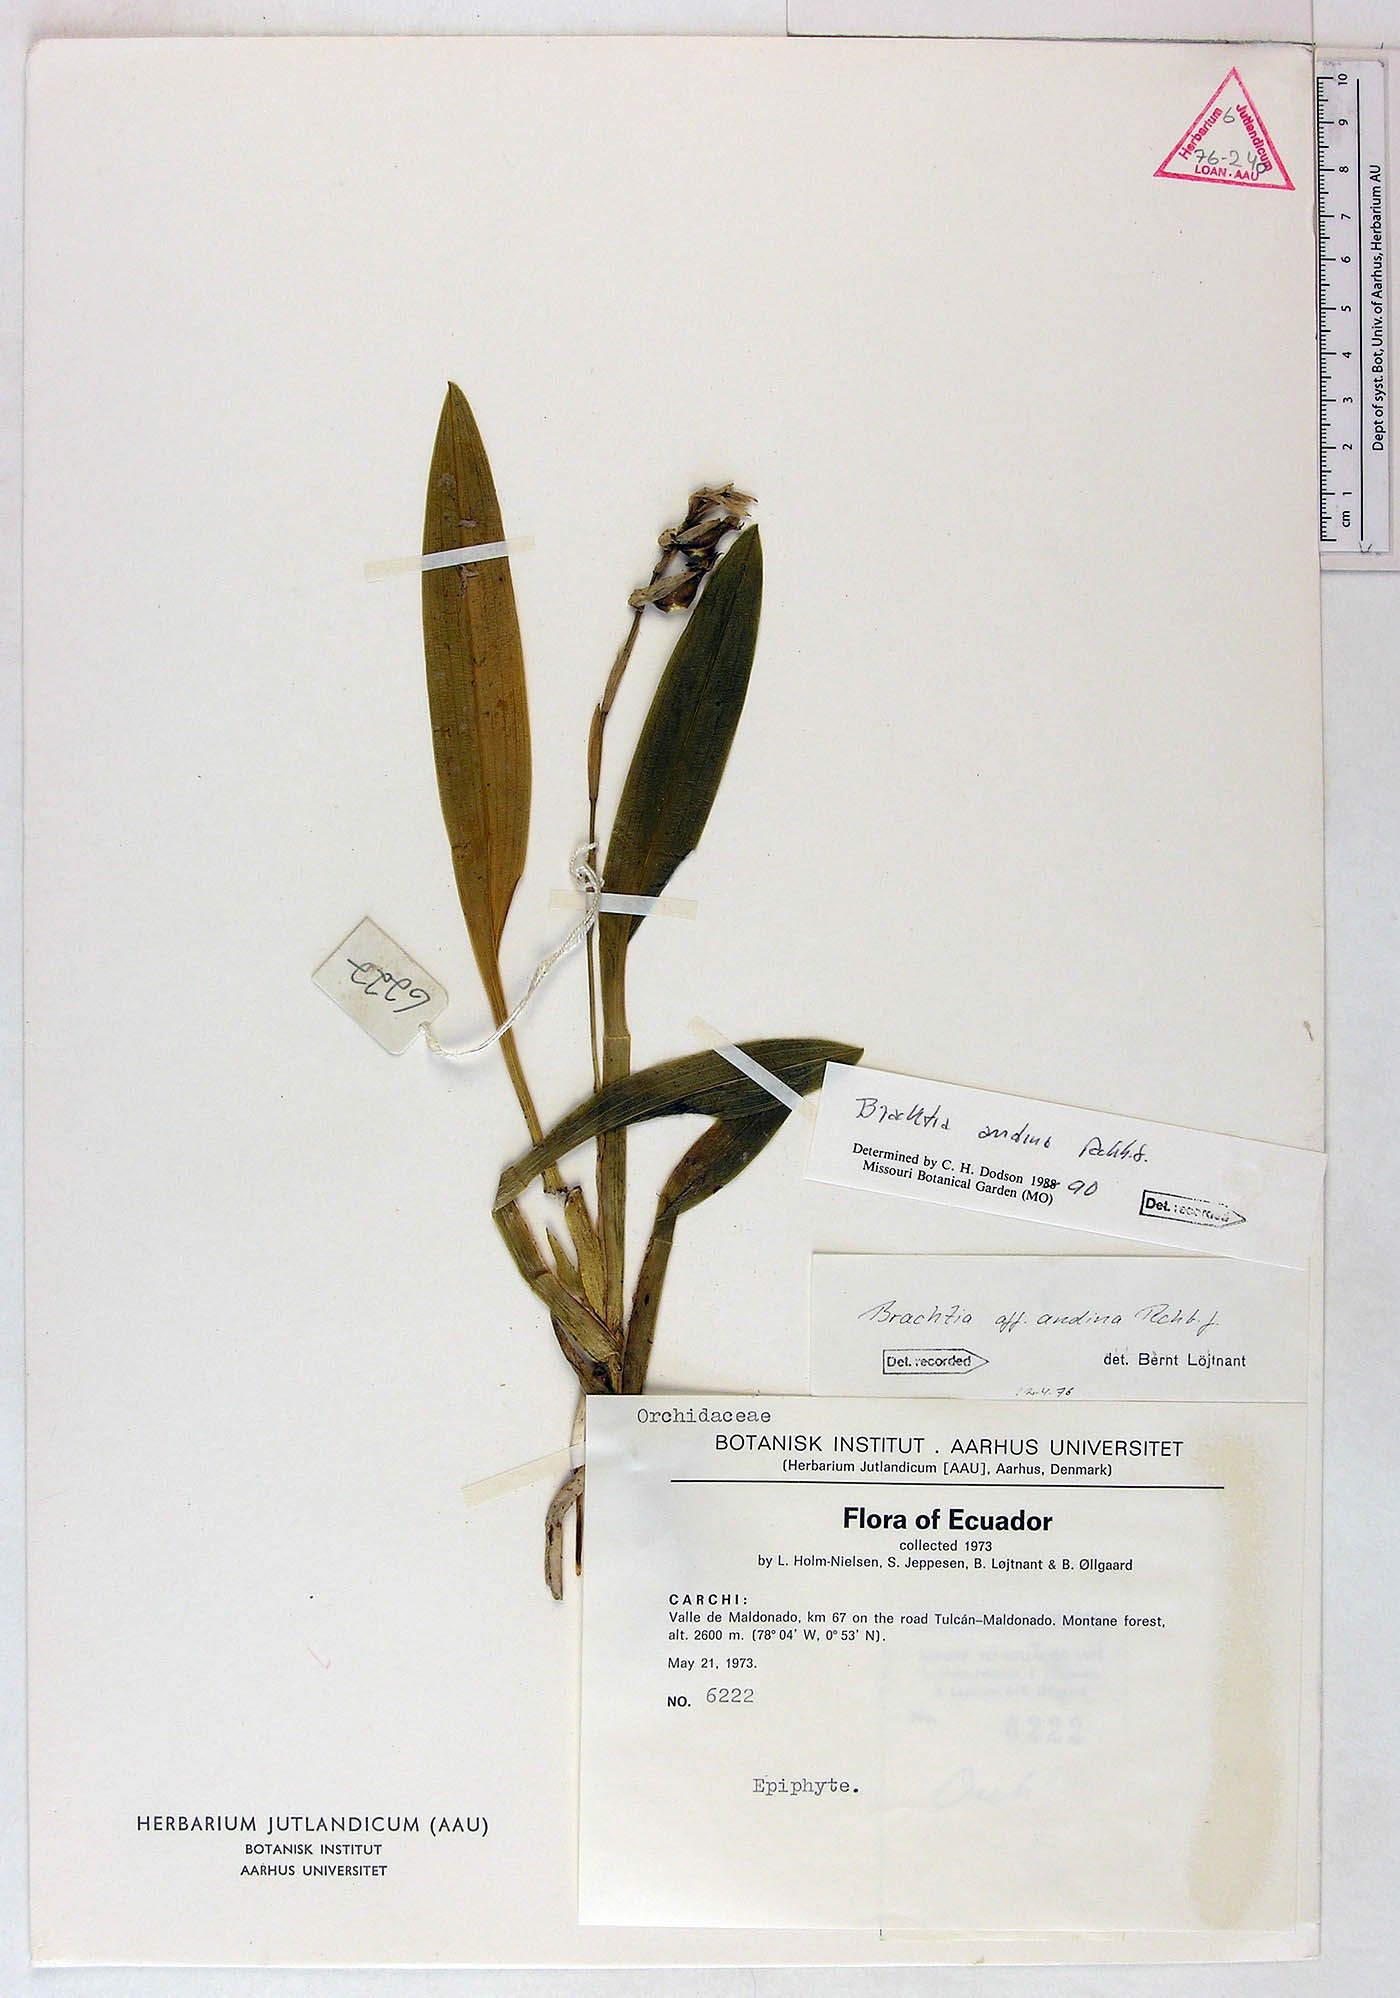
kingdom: Plantae
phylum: Tracheophyta
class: Liliopsida
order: Asparagales
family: Orchidaceae
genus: Brassia
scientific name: Brassia glumaceoides
